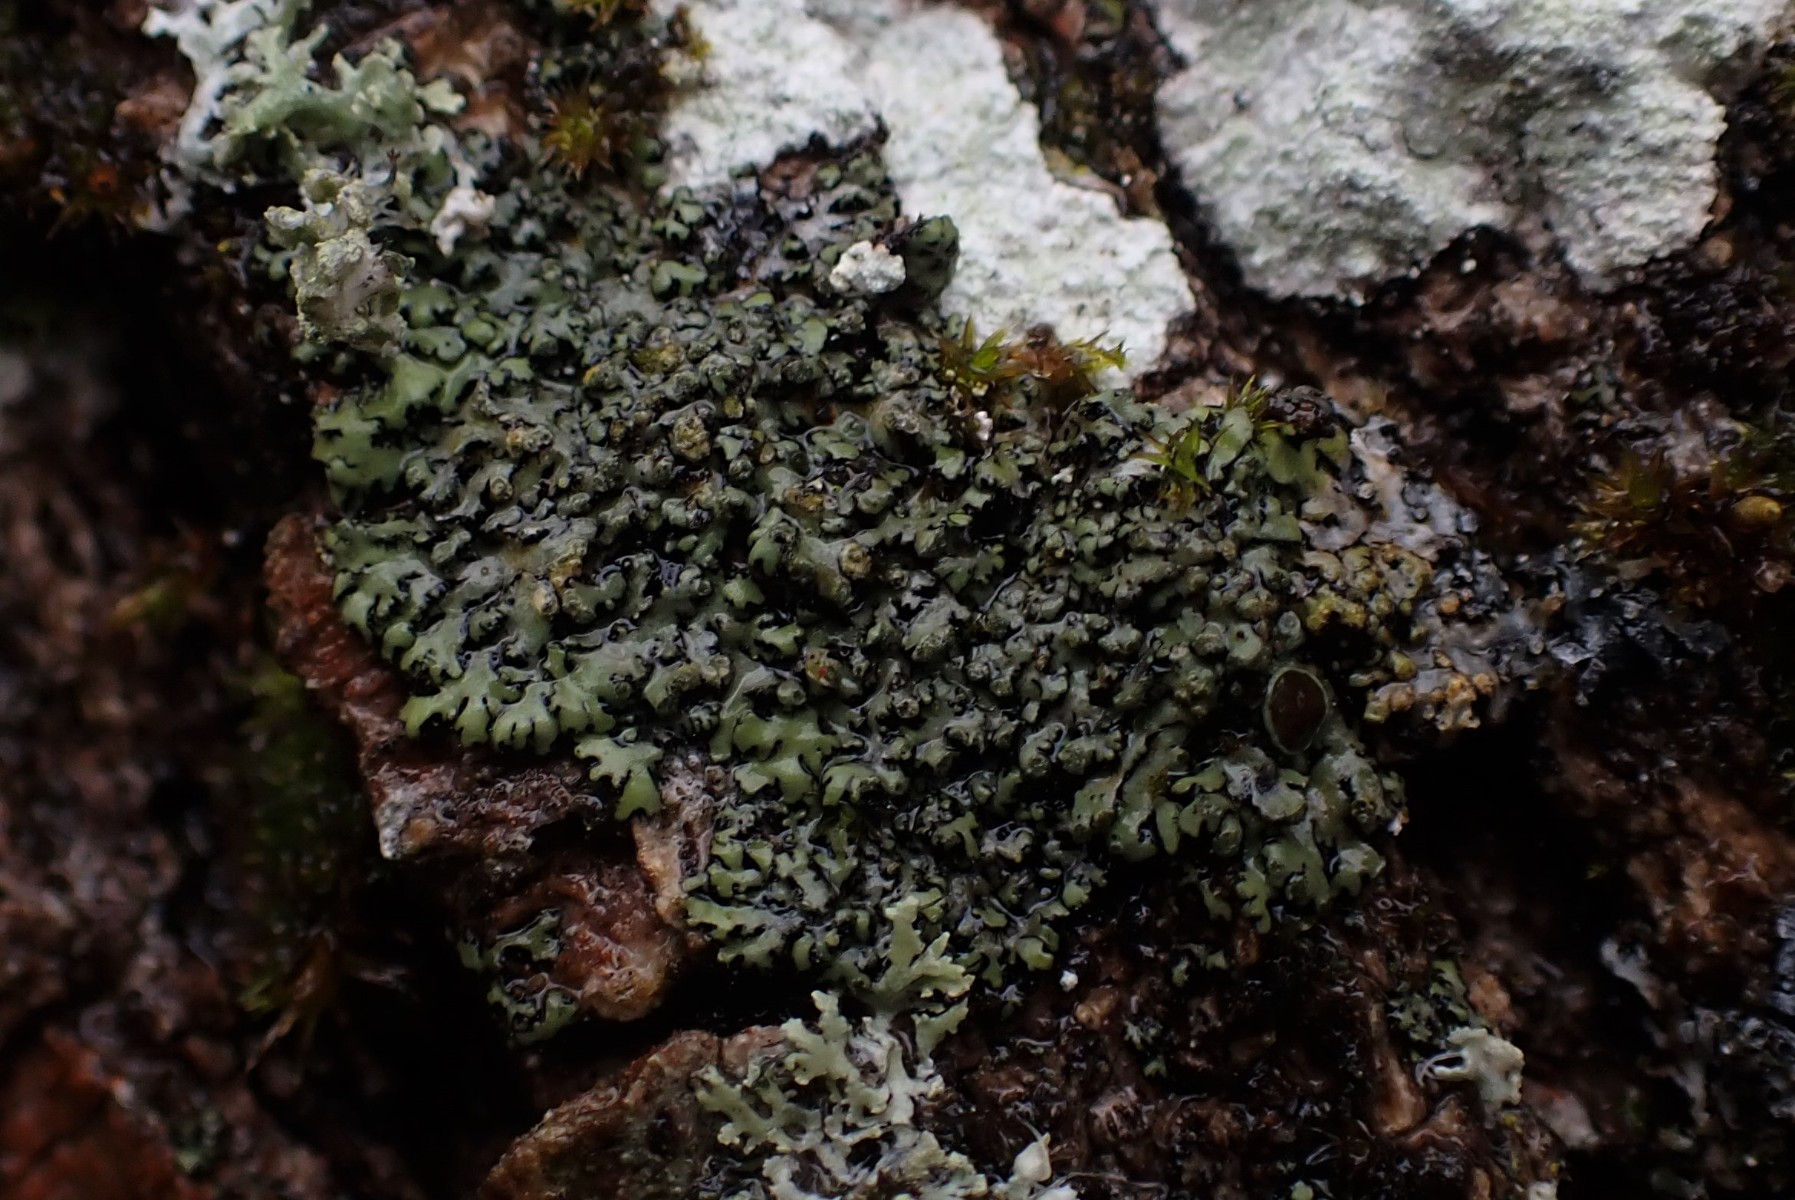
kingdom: Fungi
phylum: Ascomycota
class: Lecanoromycetes
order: Caliciales
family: Physciaceae
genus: Phaeophyscia
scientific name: Phaeophyscia orbicularis
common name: grågrøn rosetlav
